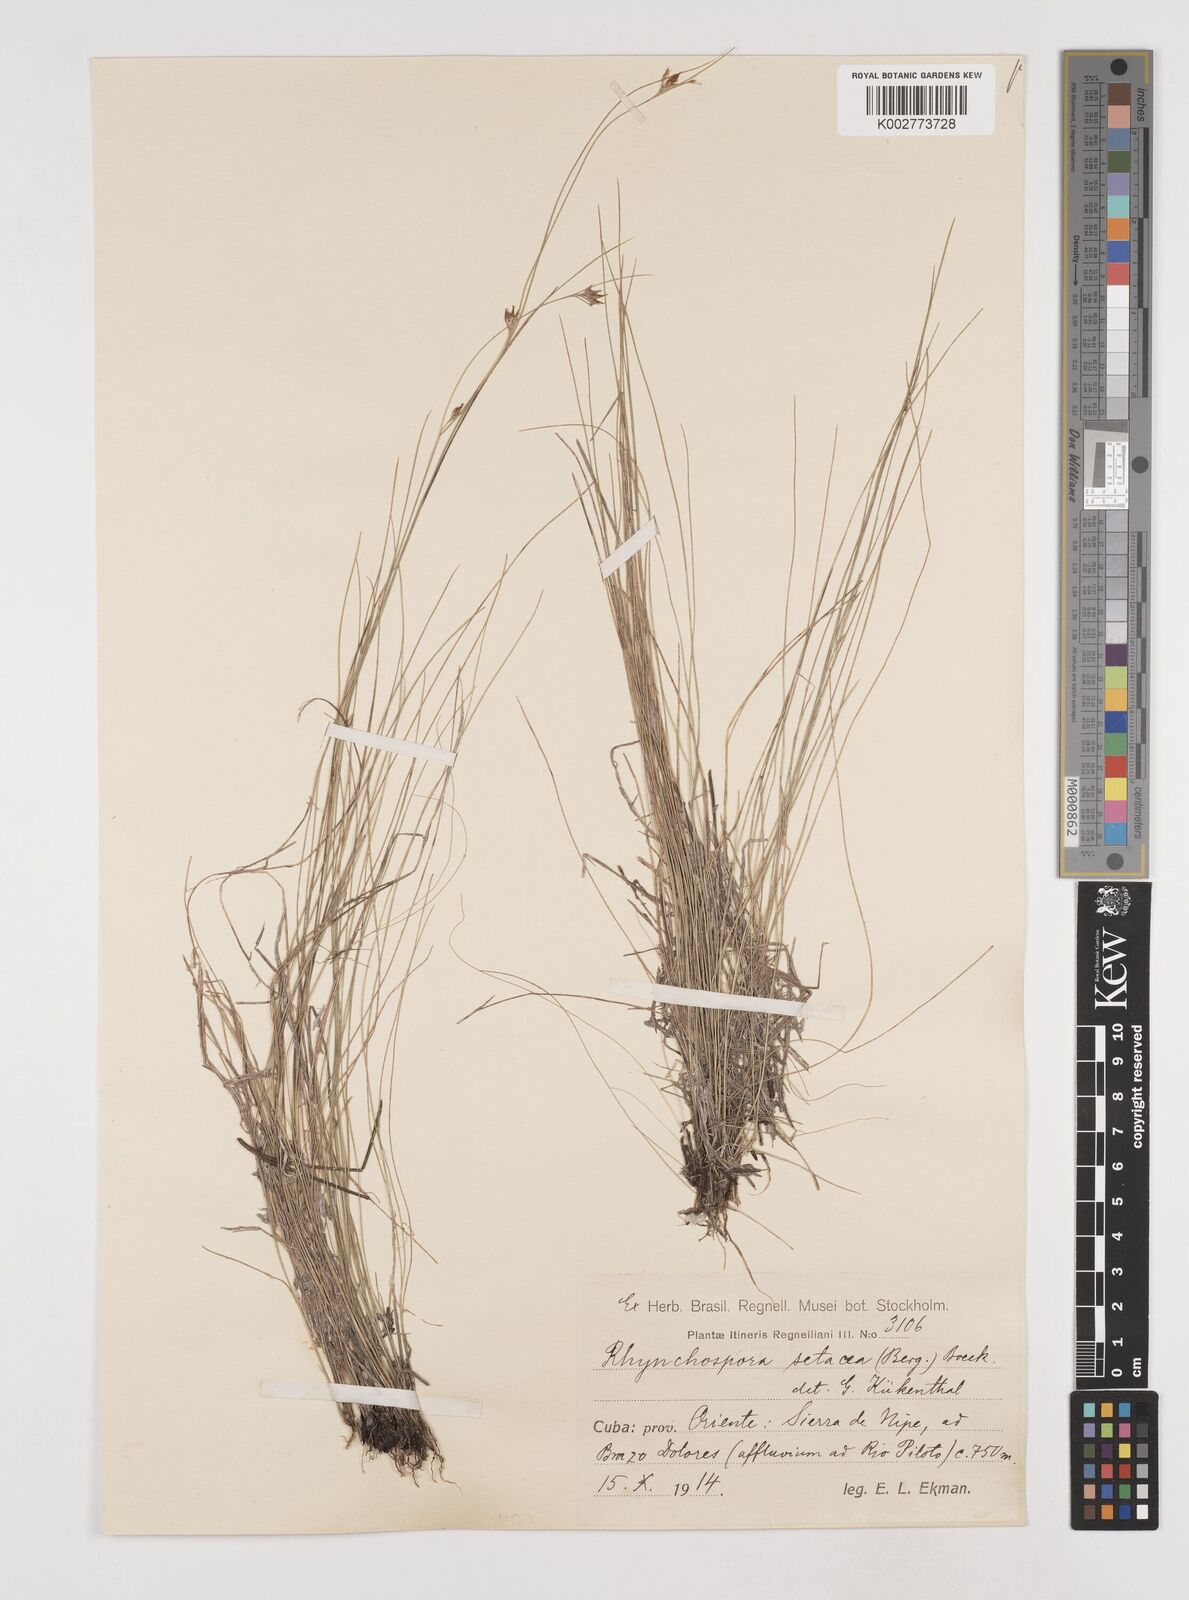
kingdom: Plantae
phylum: Tracheophyta
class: Liliopsida
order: Poales
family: Cyperaceae
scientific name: Cyperaceae
